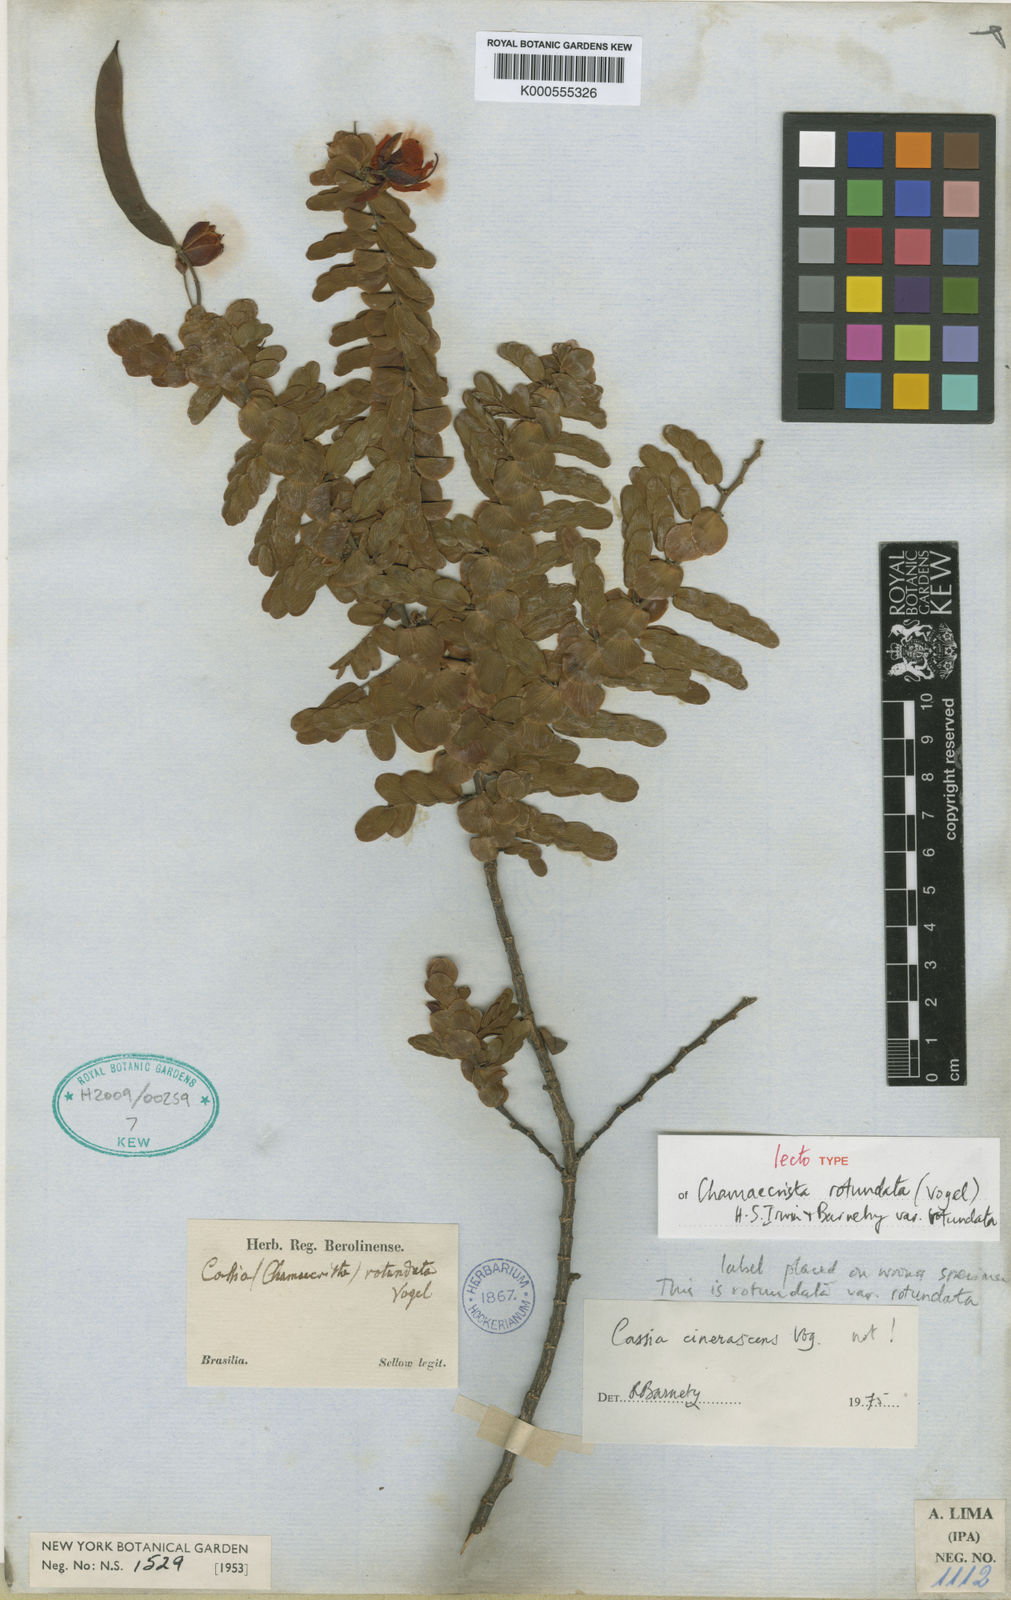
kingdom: Plantae
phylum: Tracheophyta
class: Magnoliopsida
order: Fabales
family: Fabaceae
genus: Chamaecrista
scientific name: Chamaecrista
